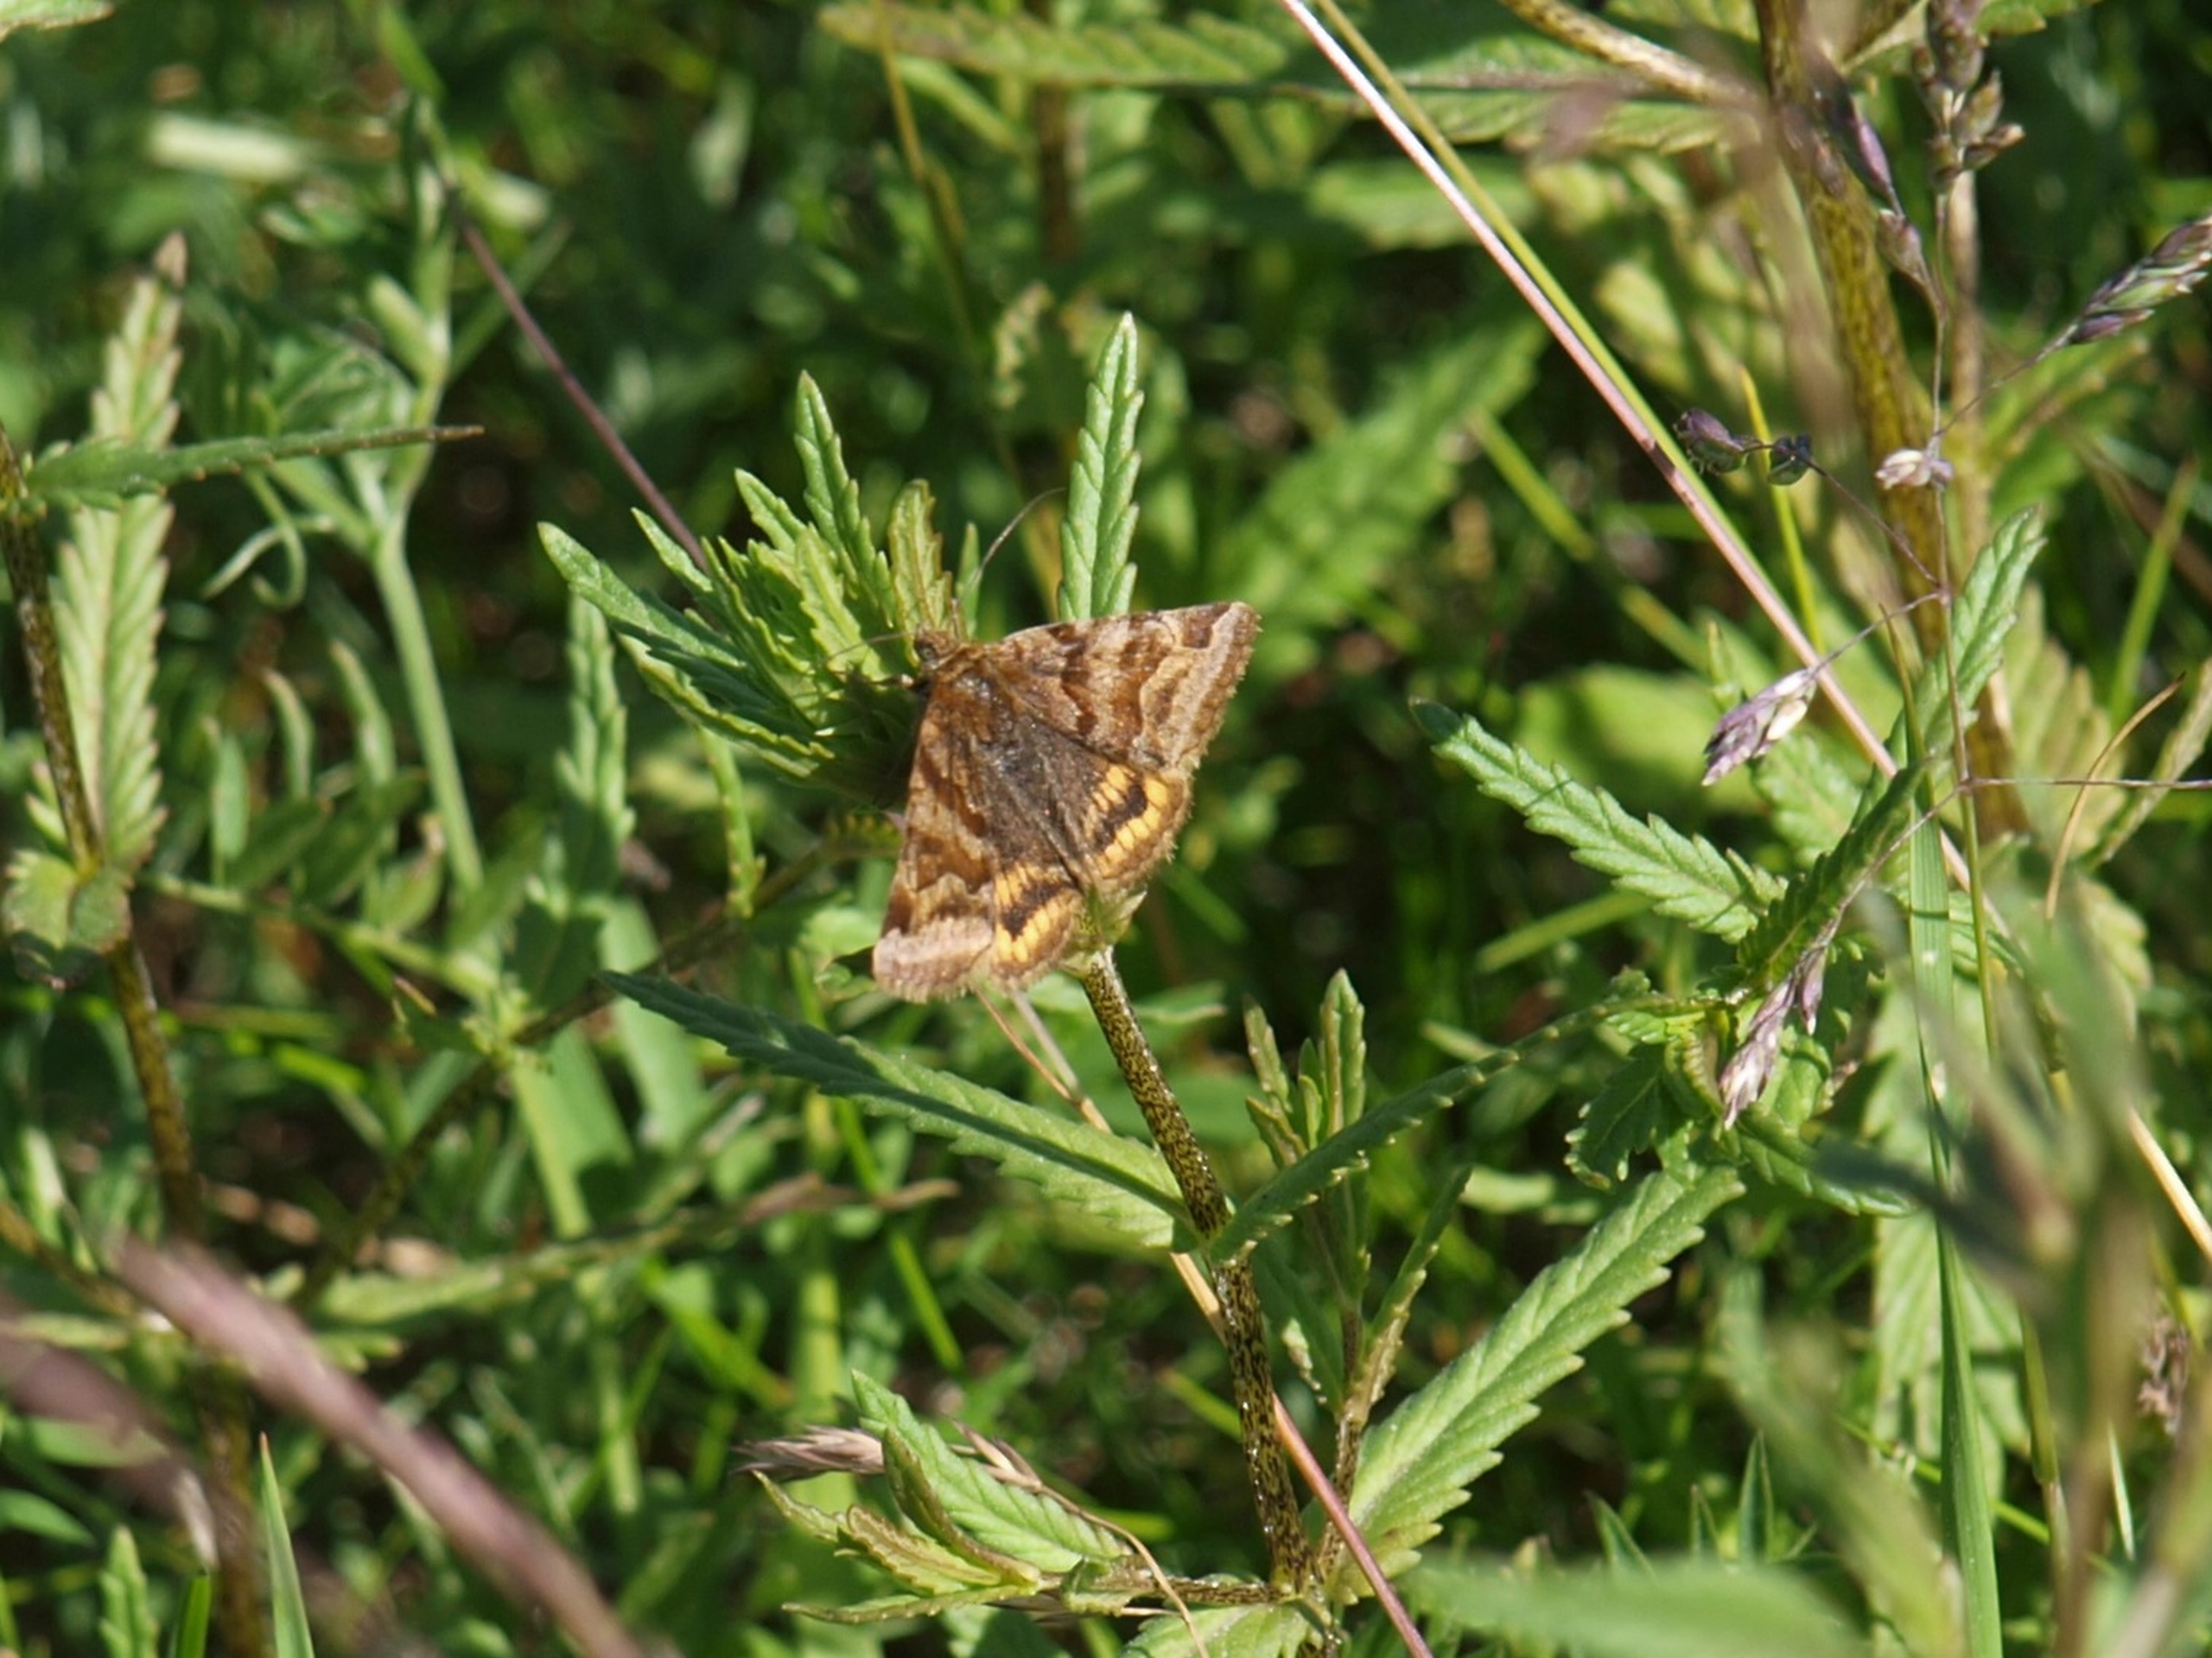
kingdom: Animalia
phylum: Arthropoda
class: Insecta
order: Lepidoptera
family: Erebidae
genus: Euclidia
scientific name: Euclidia glyphica
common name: Brun kløverugle
